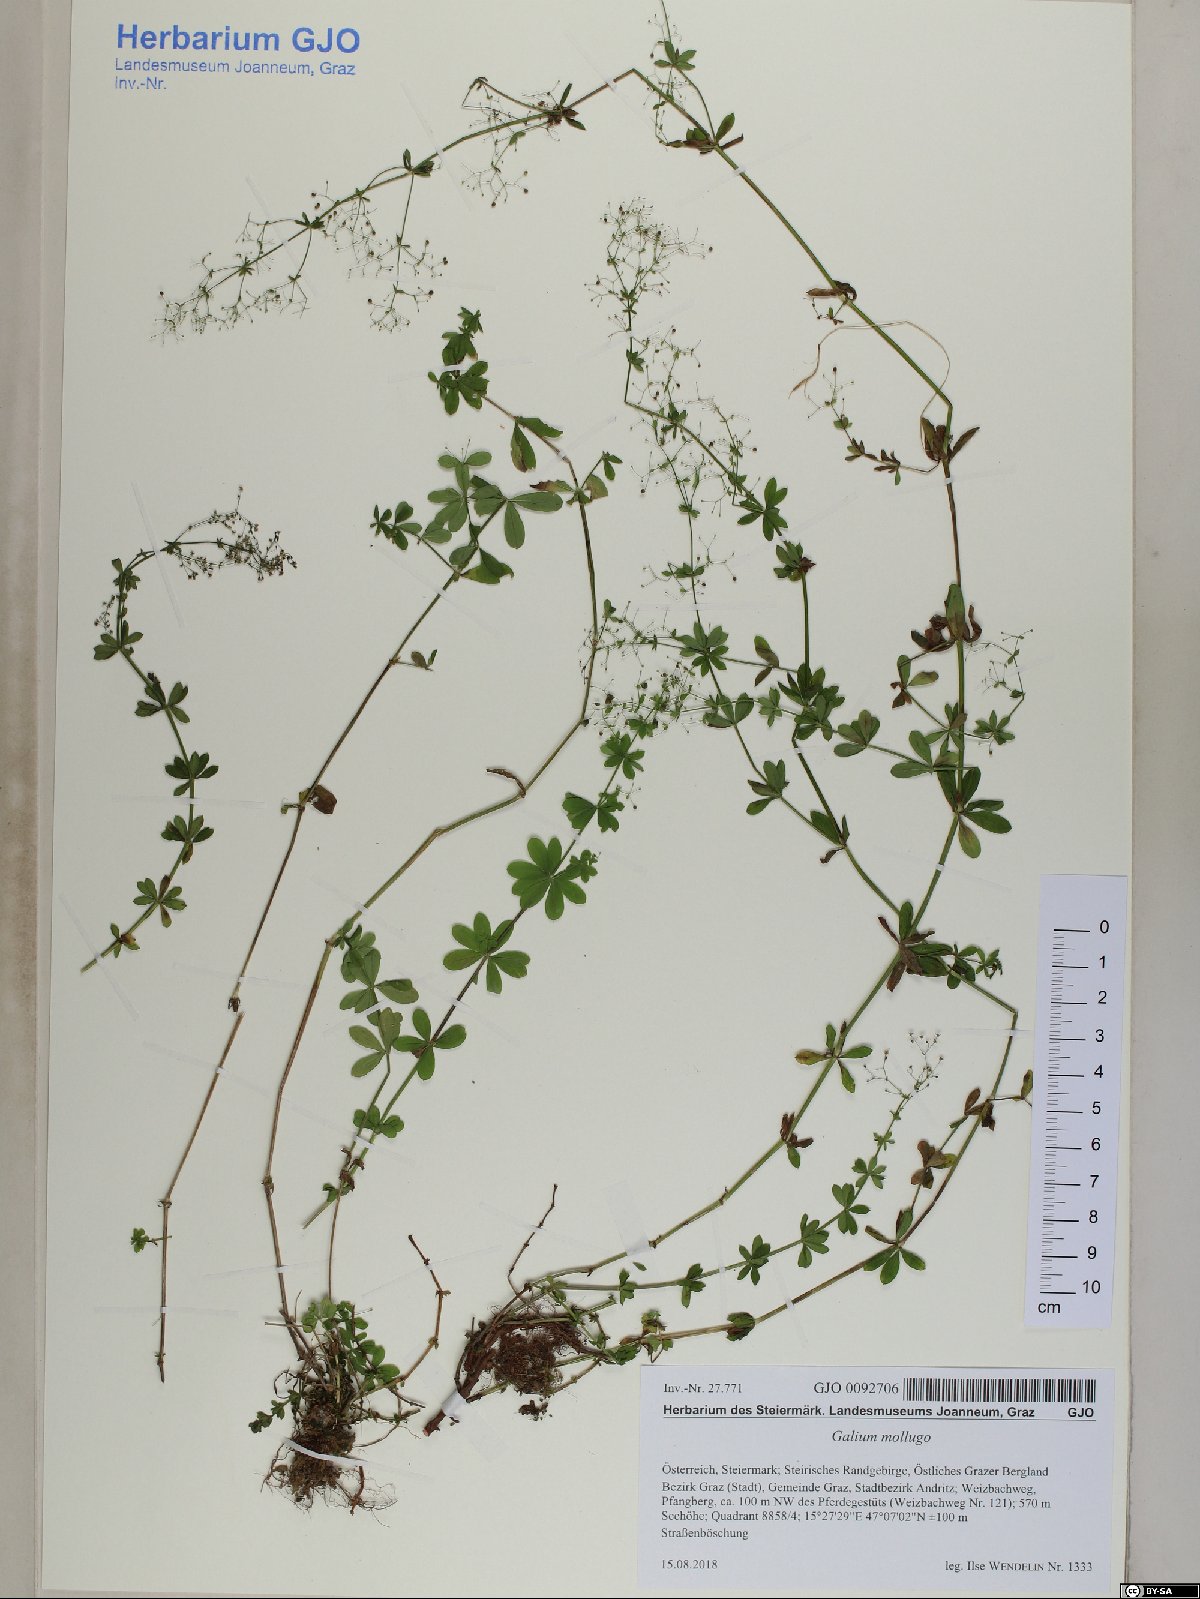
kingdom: Plantae
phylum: Tracheophyta
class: Magnoliopsida
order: Gentianales
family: Rubiaceae
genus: Galium
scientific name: Galium mollugo
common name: Hedge bedstraw
